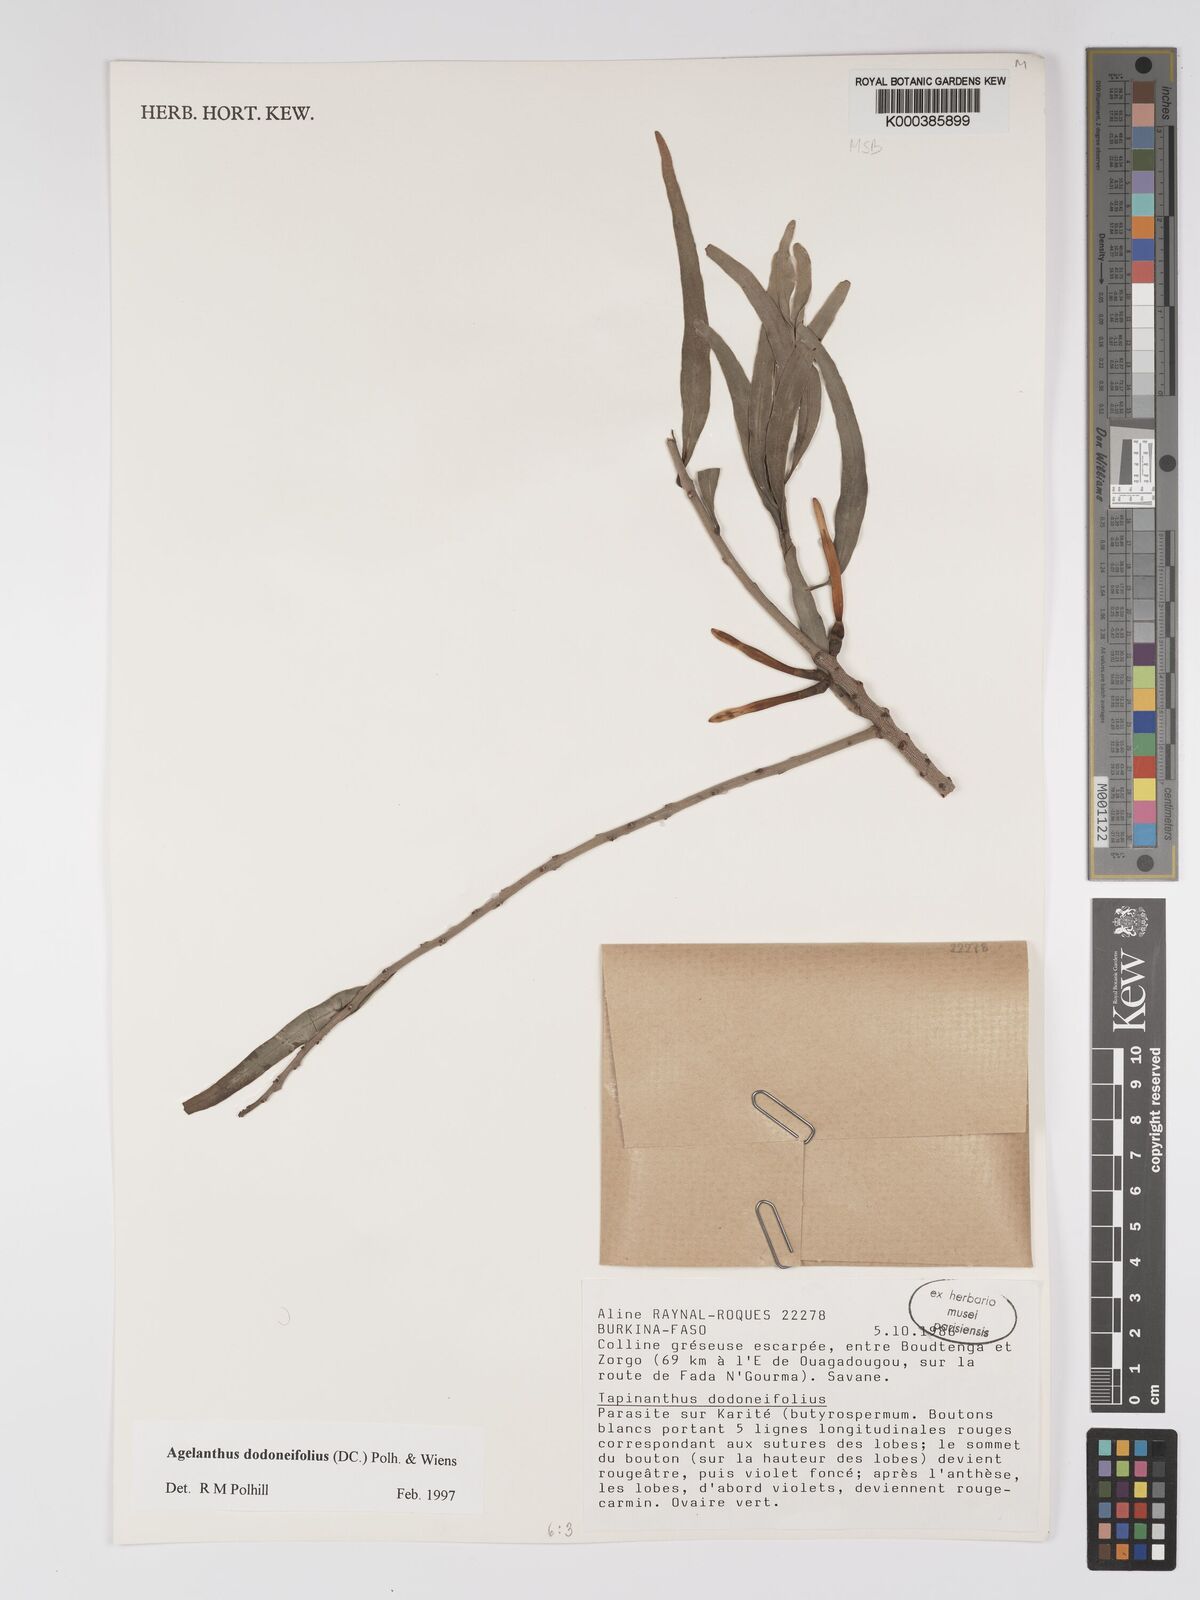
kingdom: Plantae
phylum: Tracheophyta
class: Magnoliopsida
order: Santalales
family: Loranthaceae
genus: Agelanthus
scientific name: Agelanthus dodoneifolius
